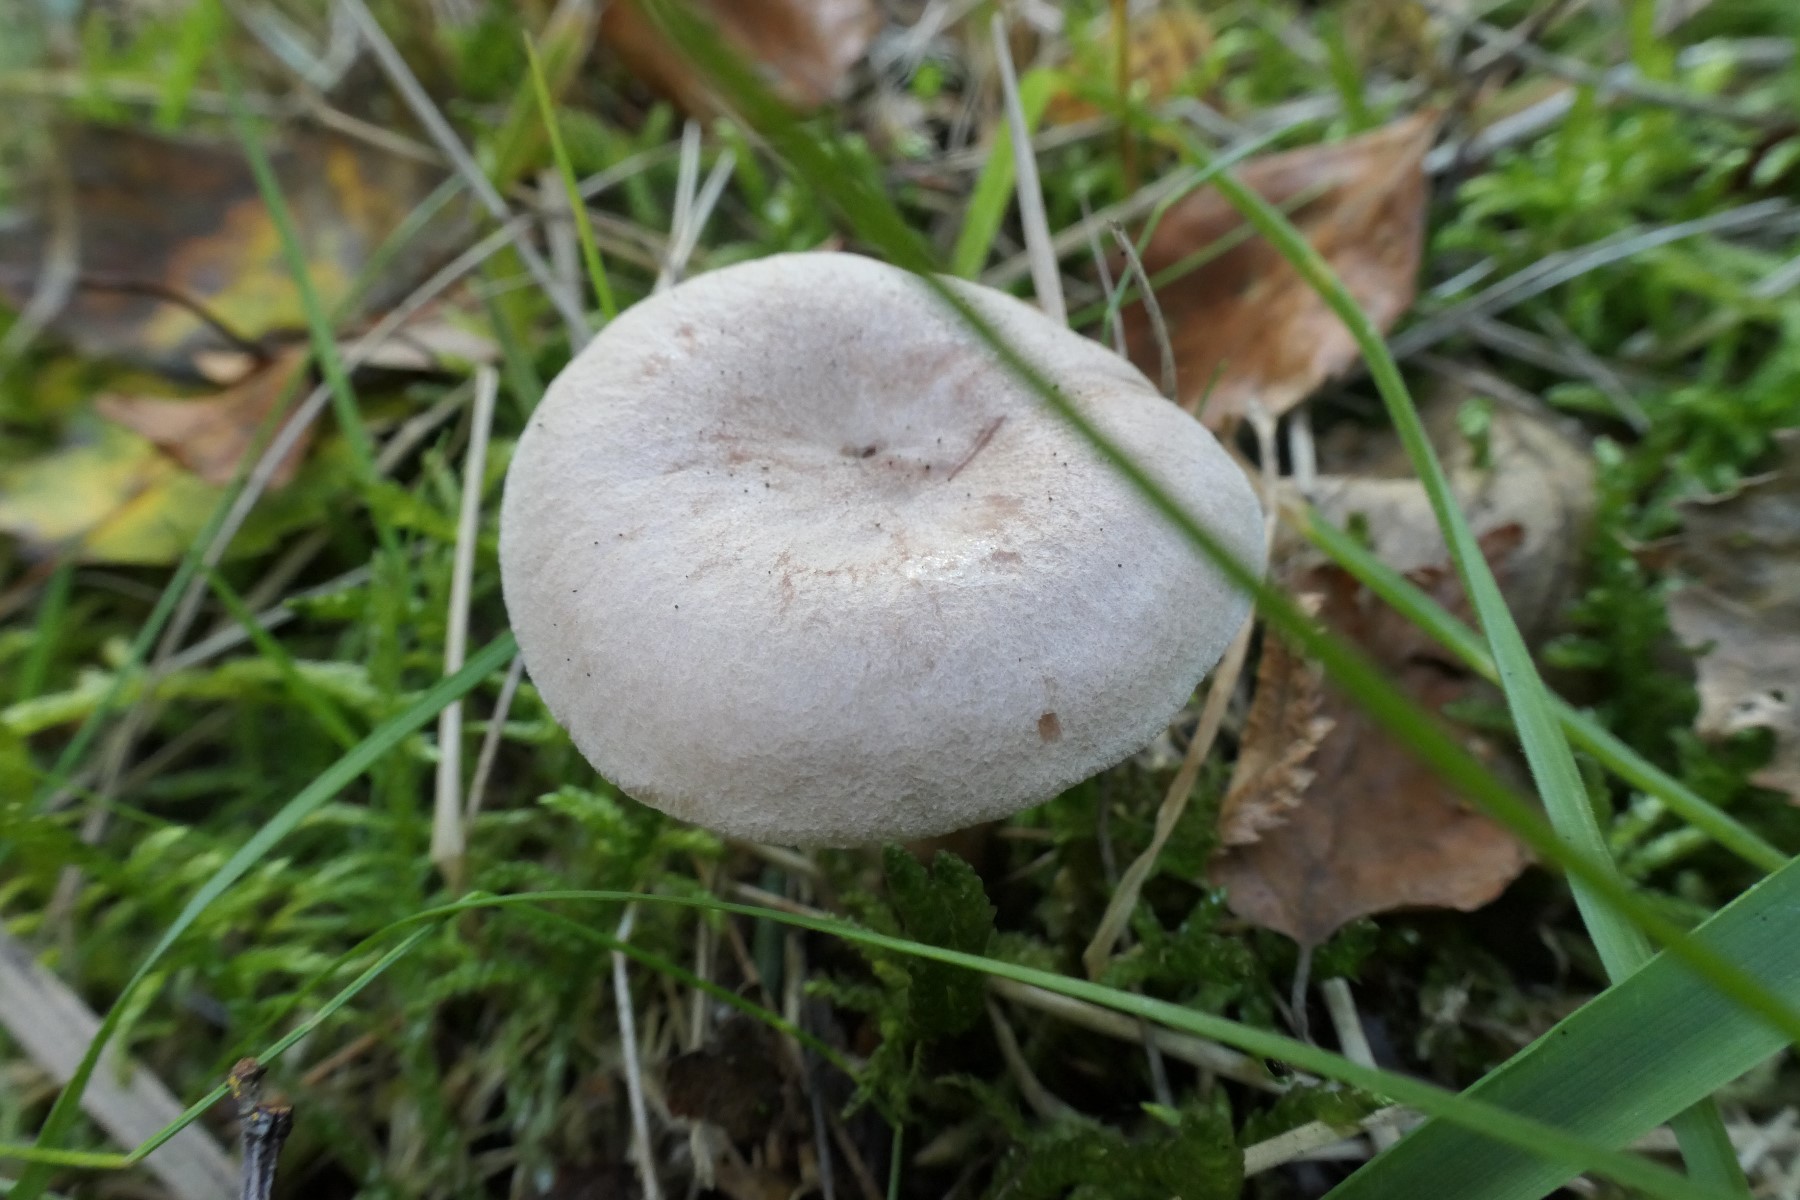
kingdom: Fungi
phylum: Basidiomycota
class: Agaricomycetes
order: Russulales
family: Russulaceae
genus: Lactarius
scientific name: Lactarius glyciosmus
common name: kokos-mælkehat
